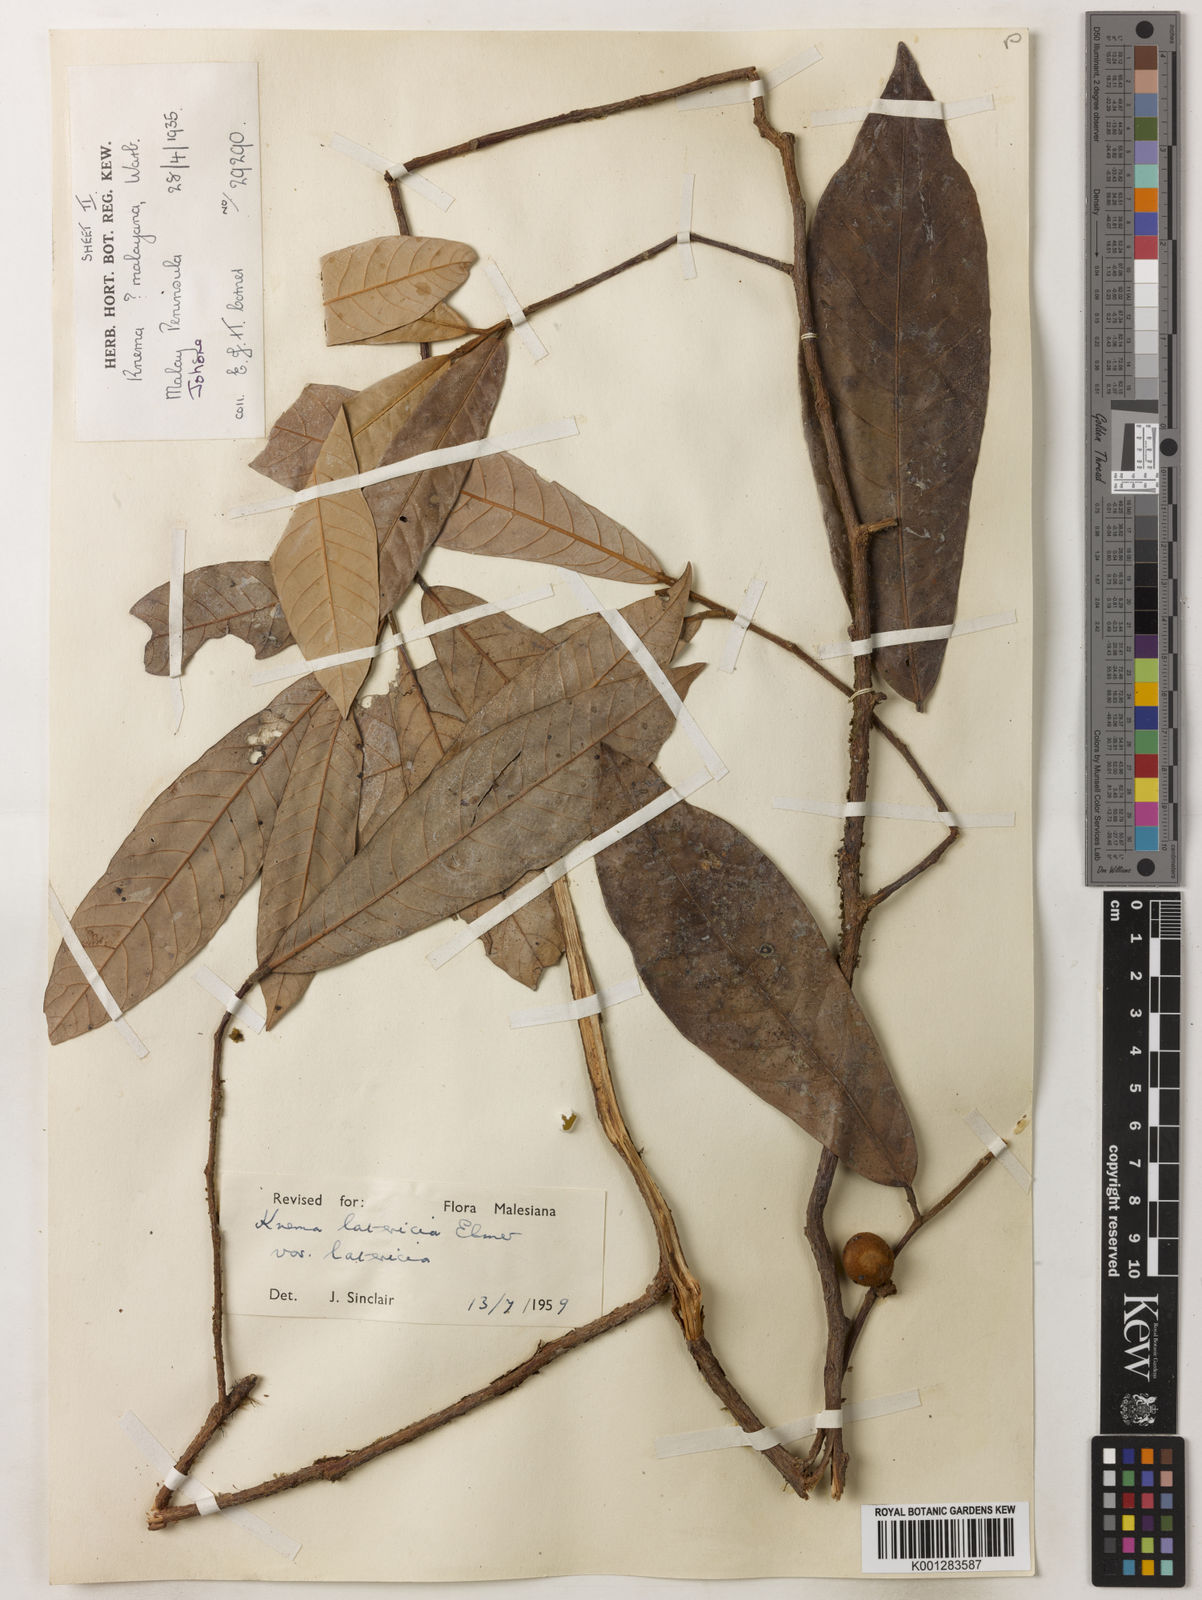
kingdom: Plantae
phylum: Tracheophyta
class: Magnoliopsida
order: Magnoliales
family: Myristicaceae
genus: Knema
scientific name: Knema latericia
